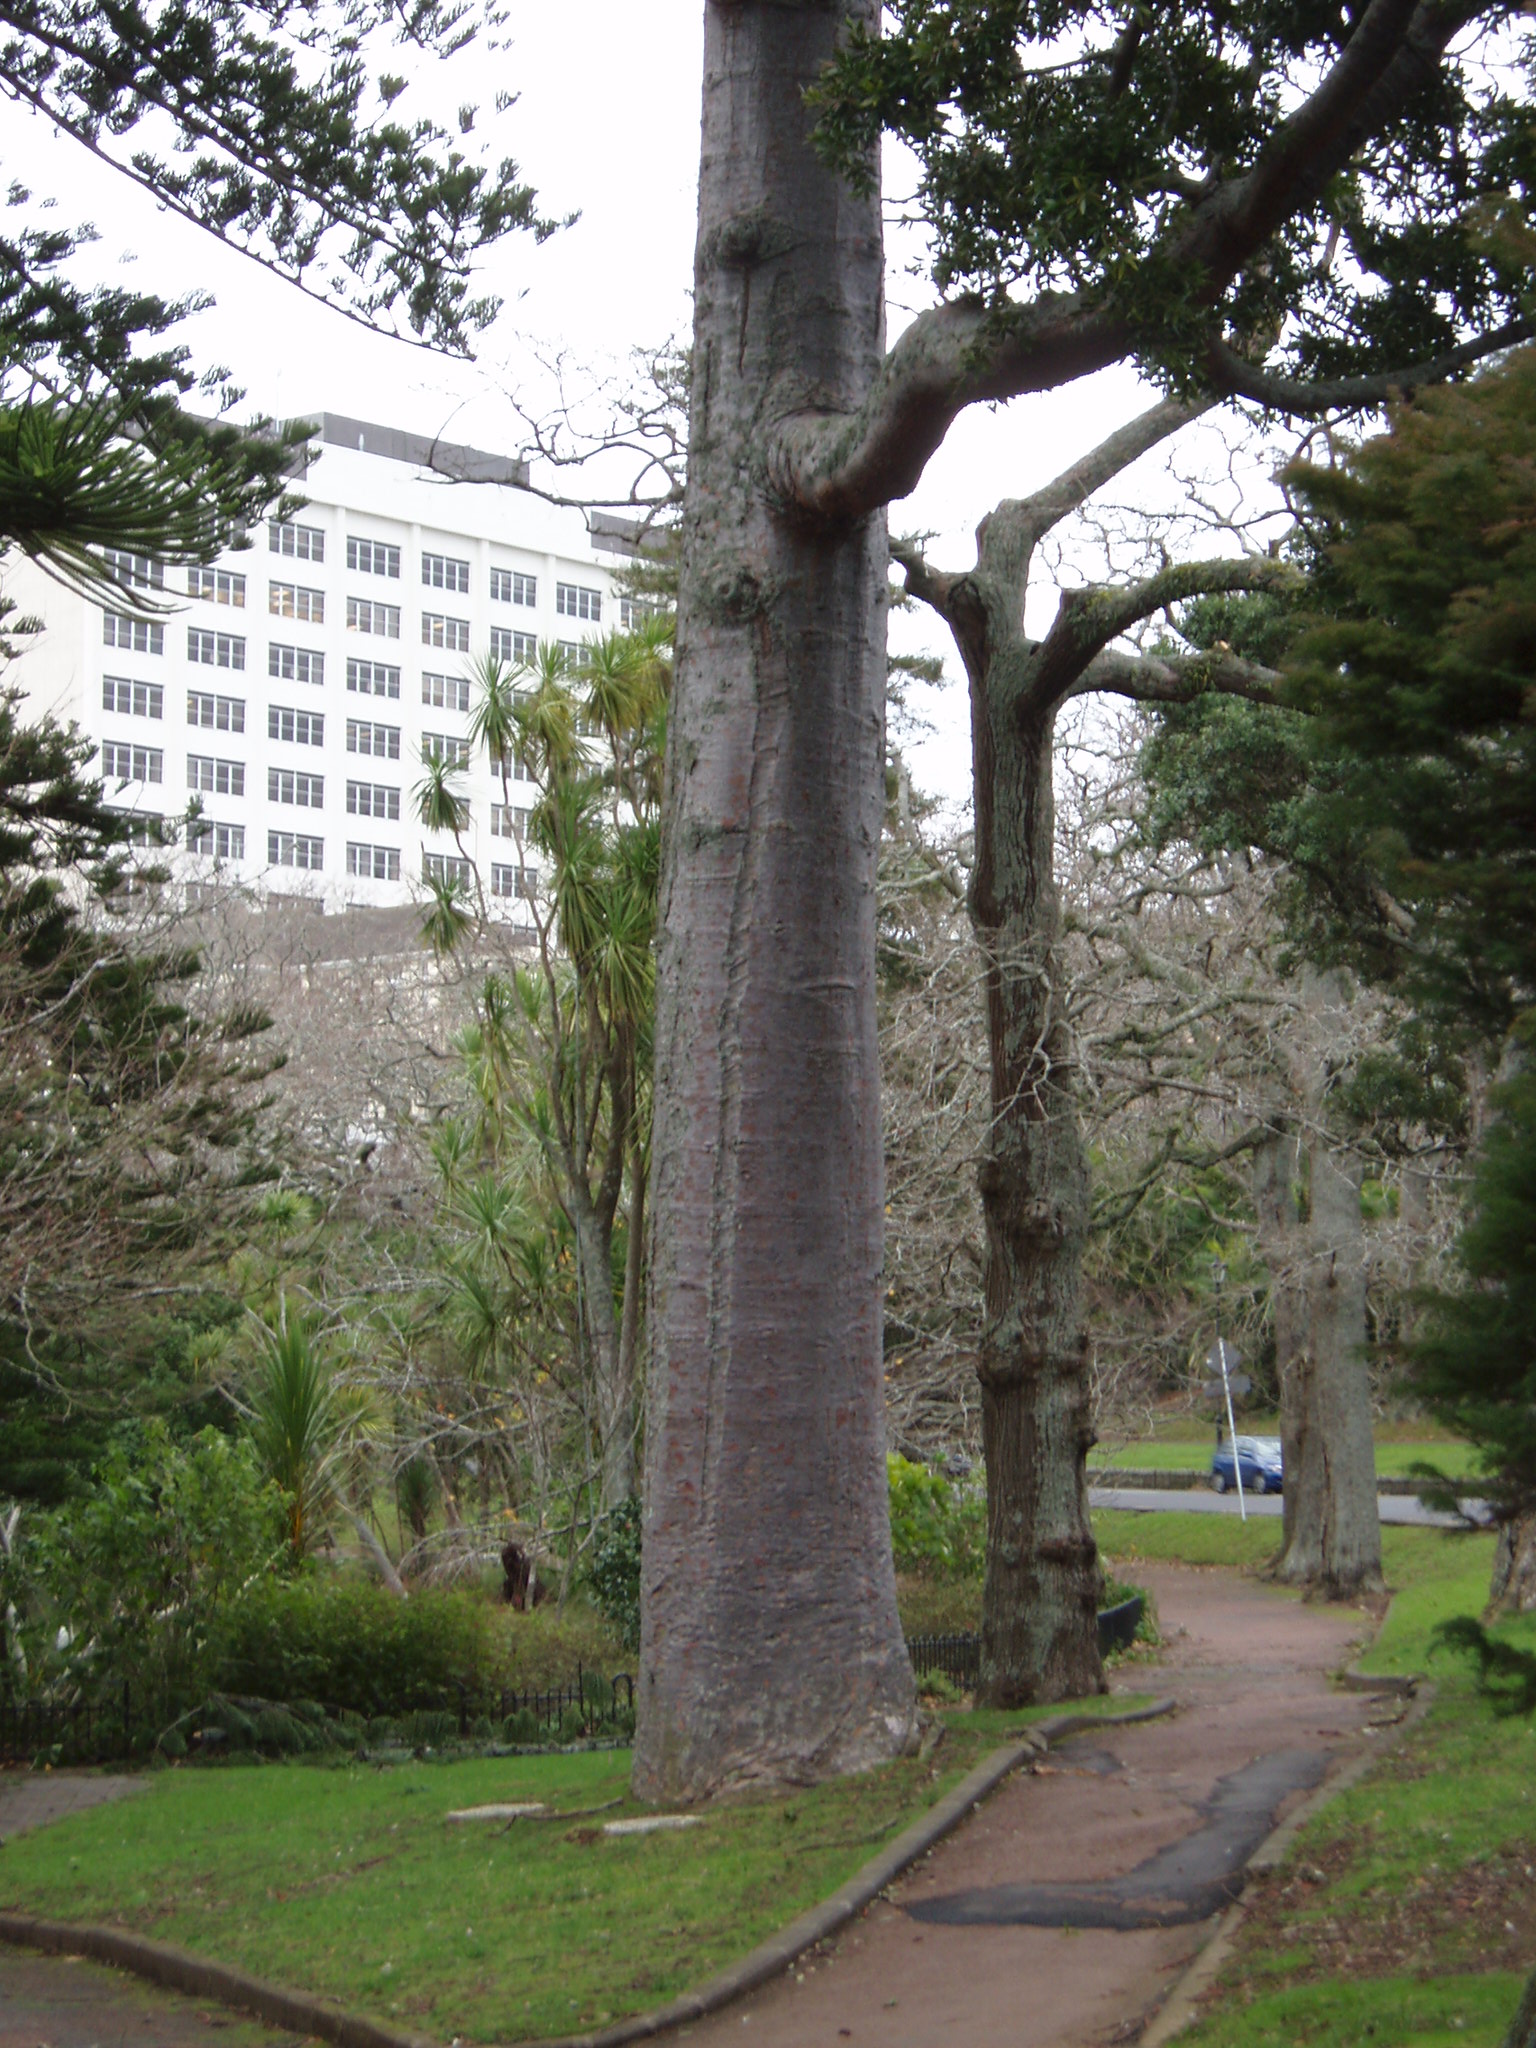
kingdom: Plantae
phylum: Tracheophyta
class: Pinopsida
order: Pinales
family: Araucariaceae
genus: Agathis
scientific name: Agathis robusta
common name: Australian-kauri
